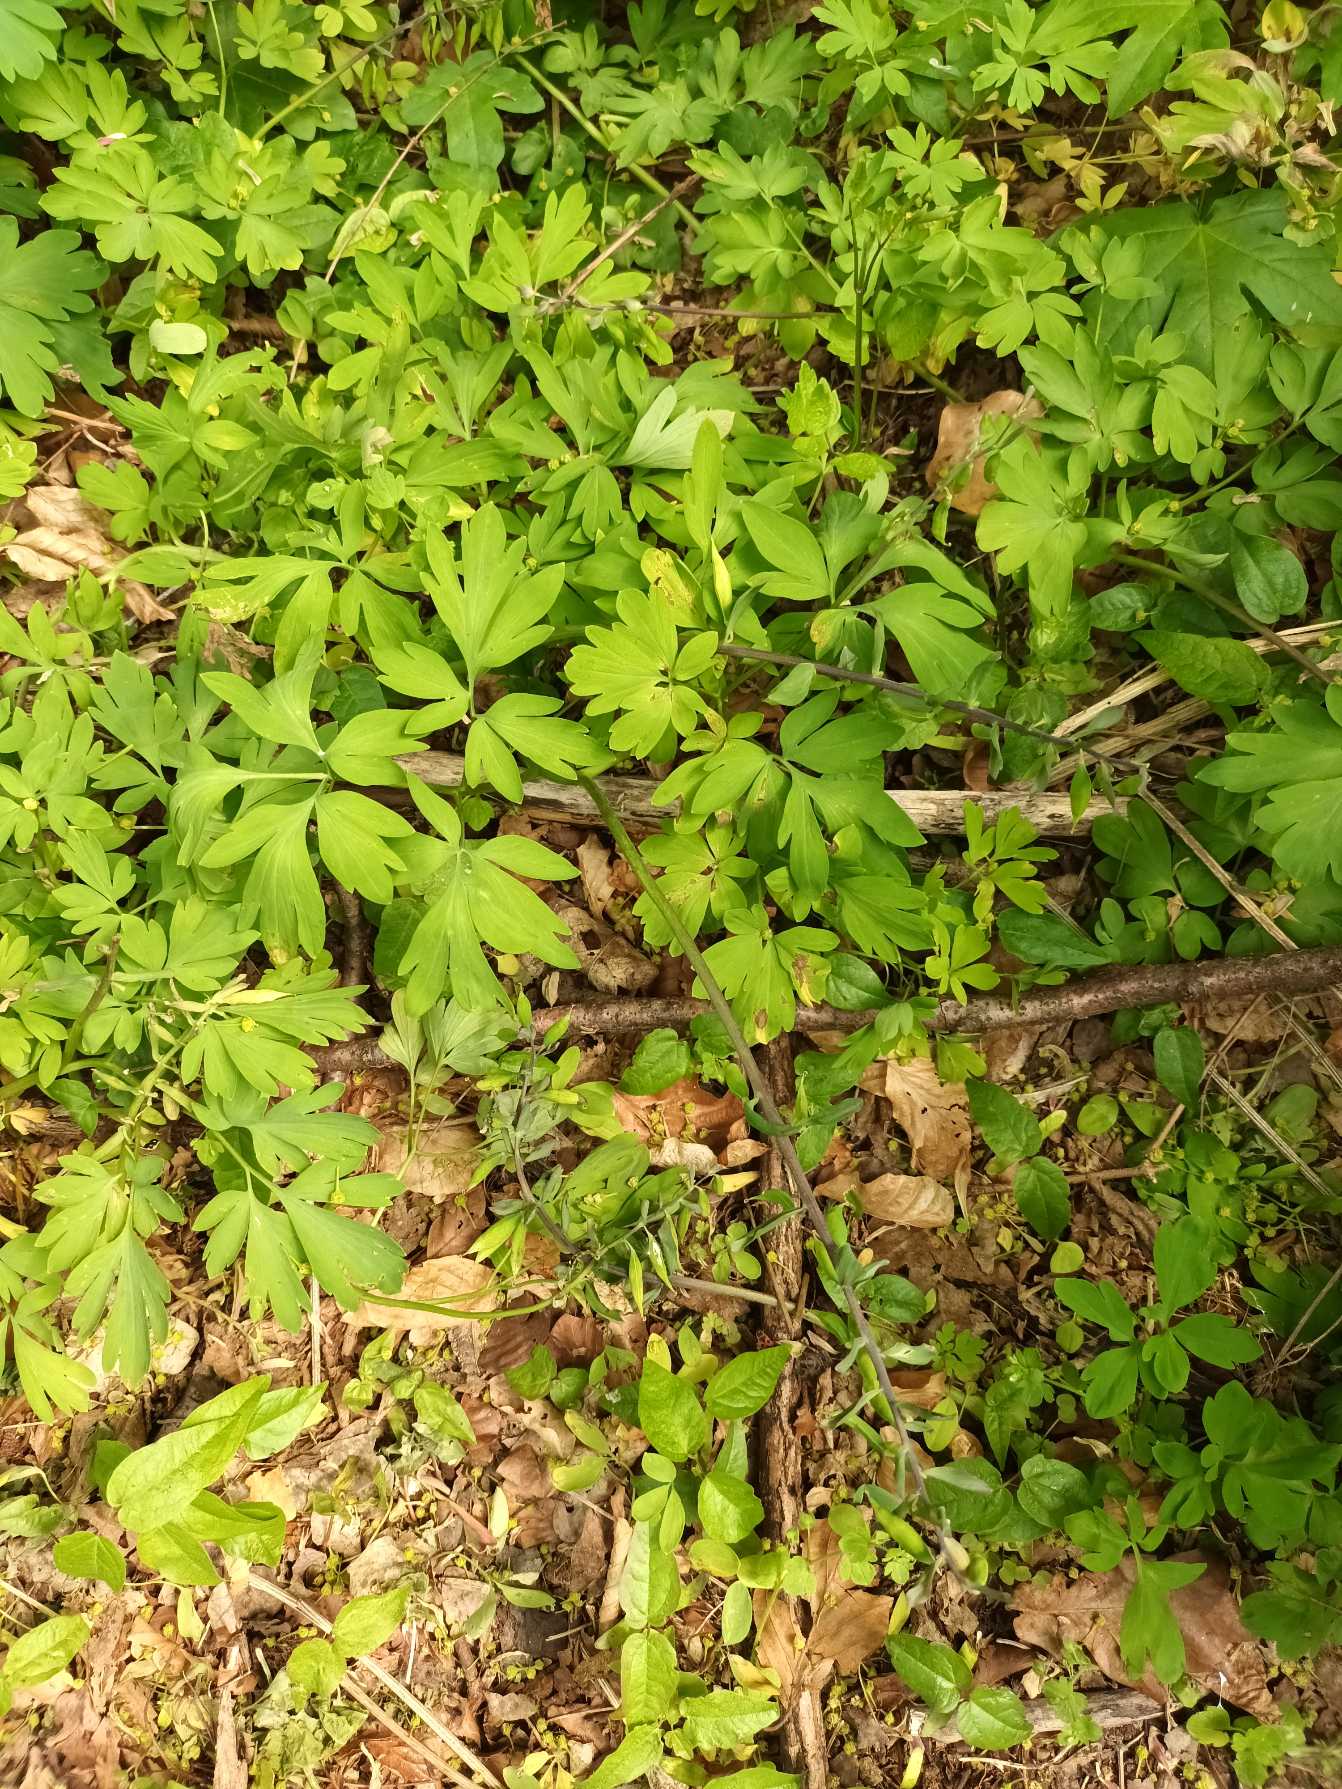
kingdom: Plantae
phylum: Tracheophyta
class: Magnoliopsida
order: Ranunculales
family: Papaveraceae
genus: Corydalis
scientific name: Corydalis cava
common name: Hulrodet lærkespore
